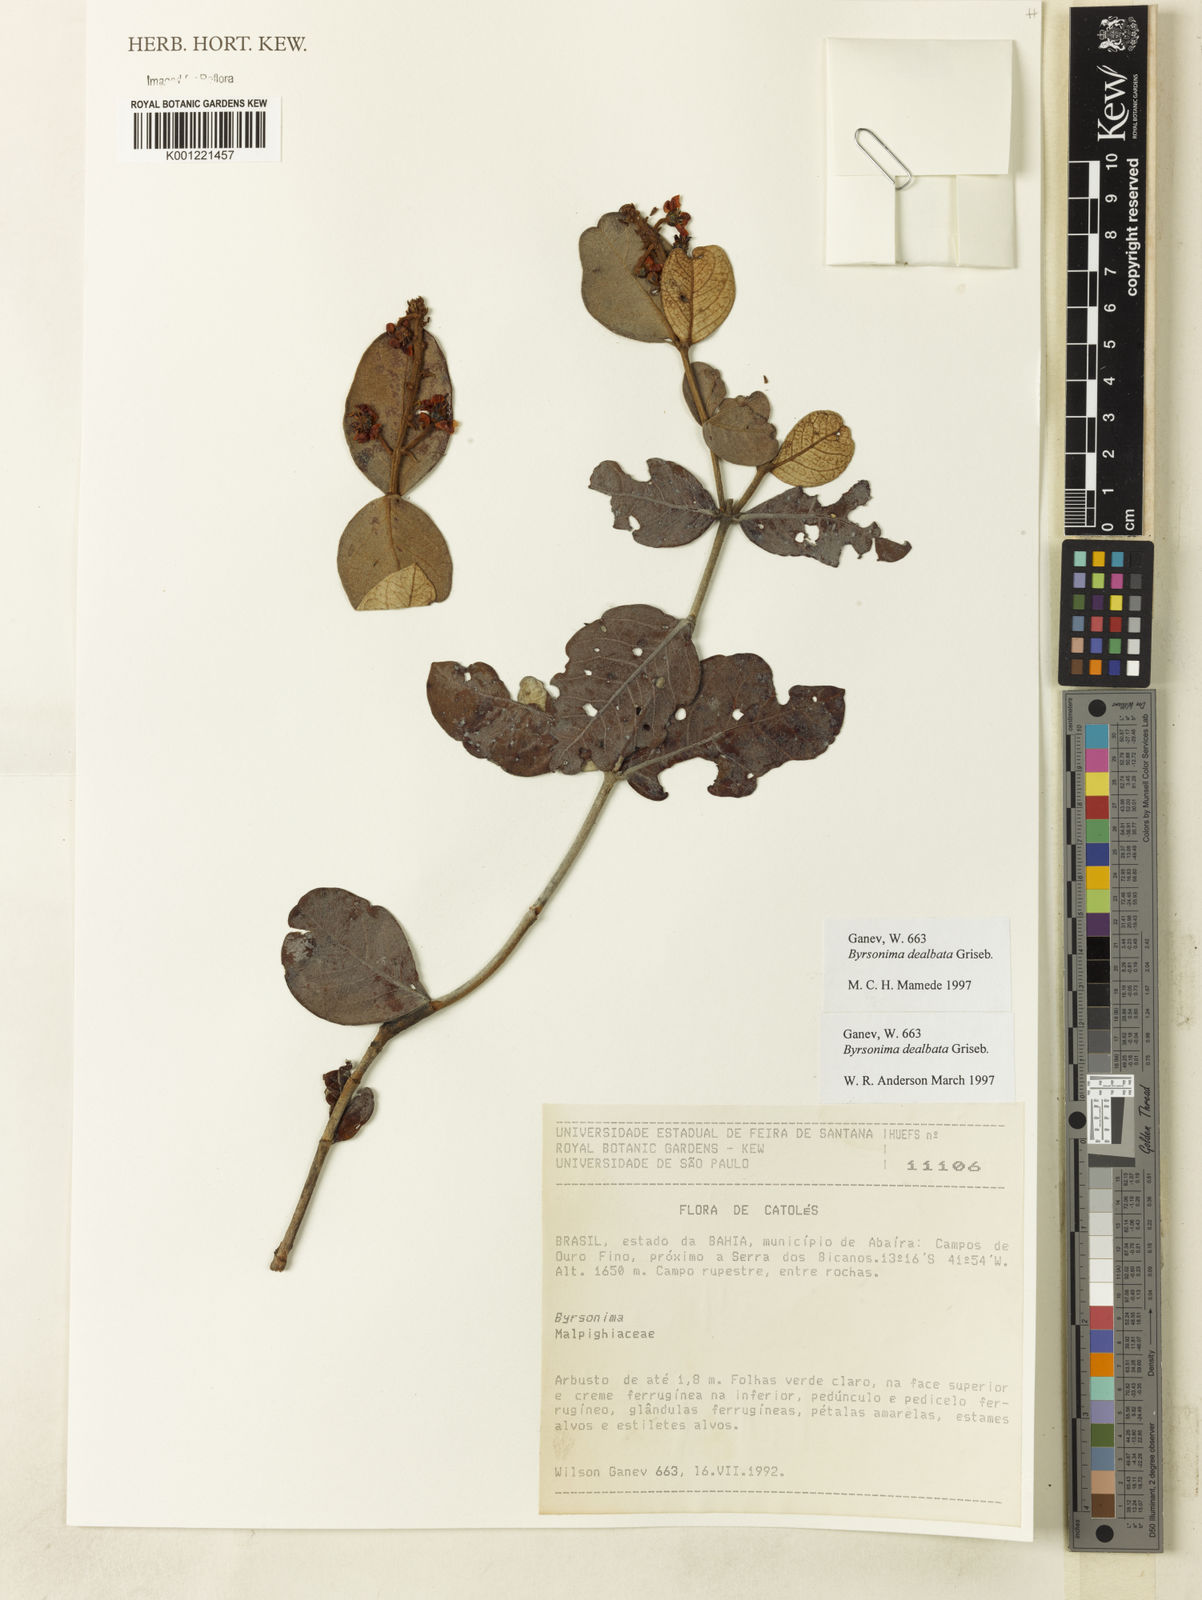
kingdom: Plantae
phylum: Tracheophyta
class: Magnoliopsida
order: Malpighiales
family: Malpighiaceae
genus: Byrsonima
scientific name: Byrsonima dealbata
